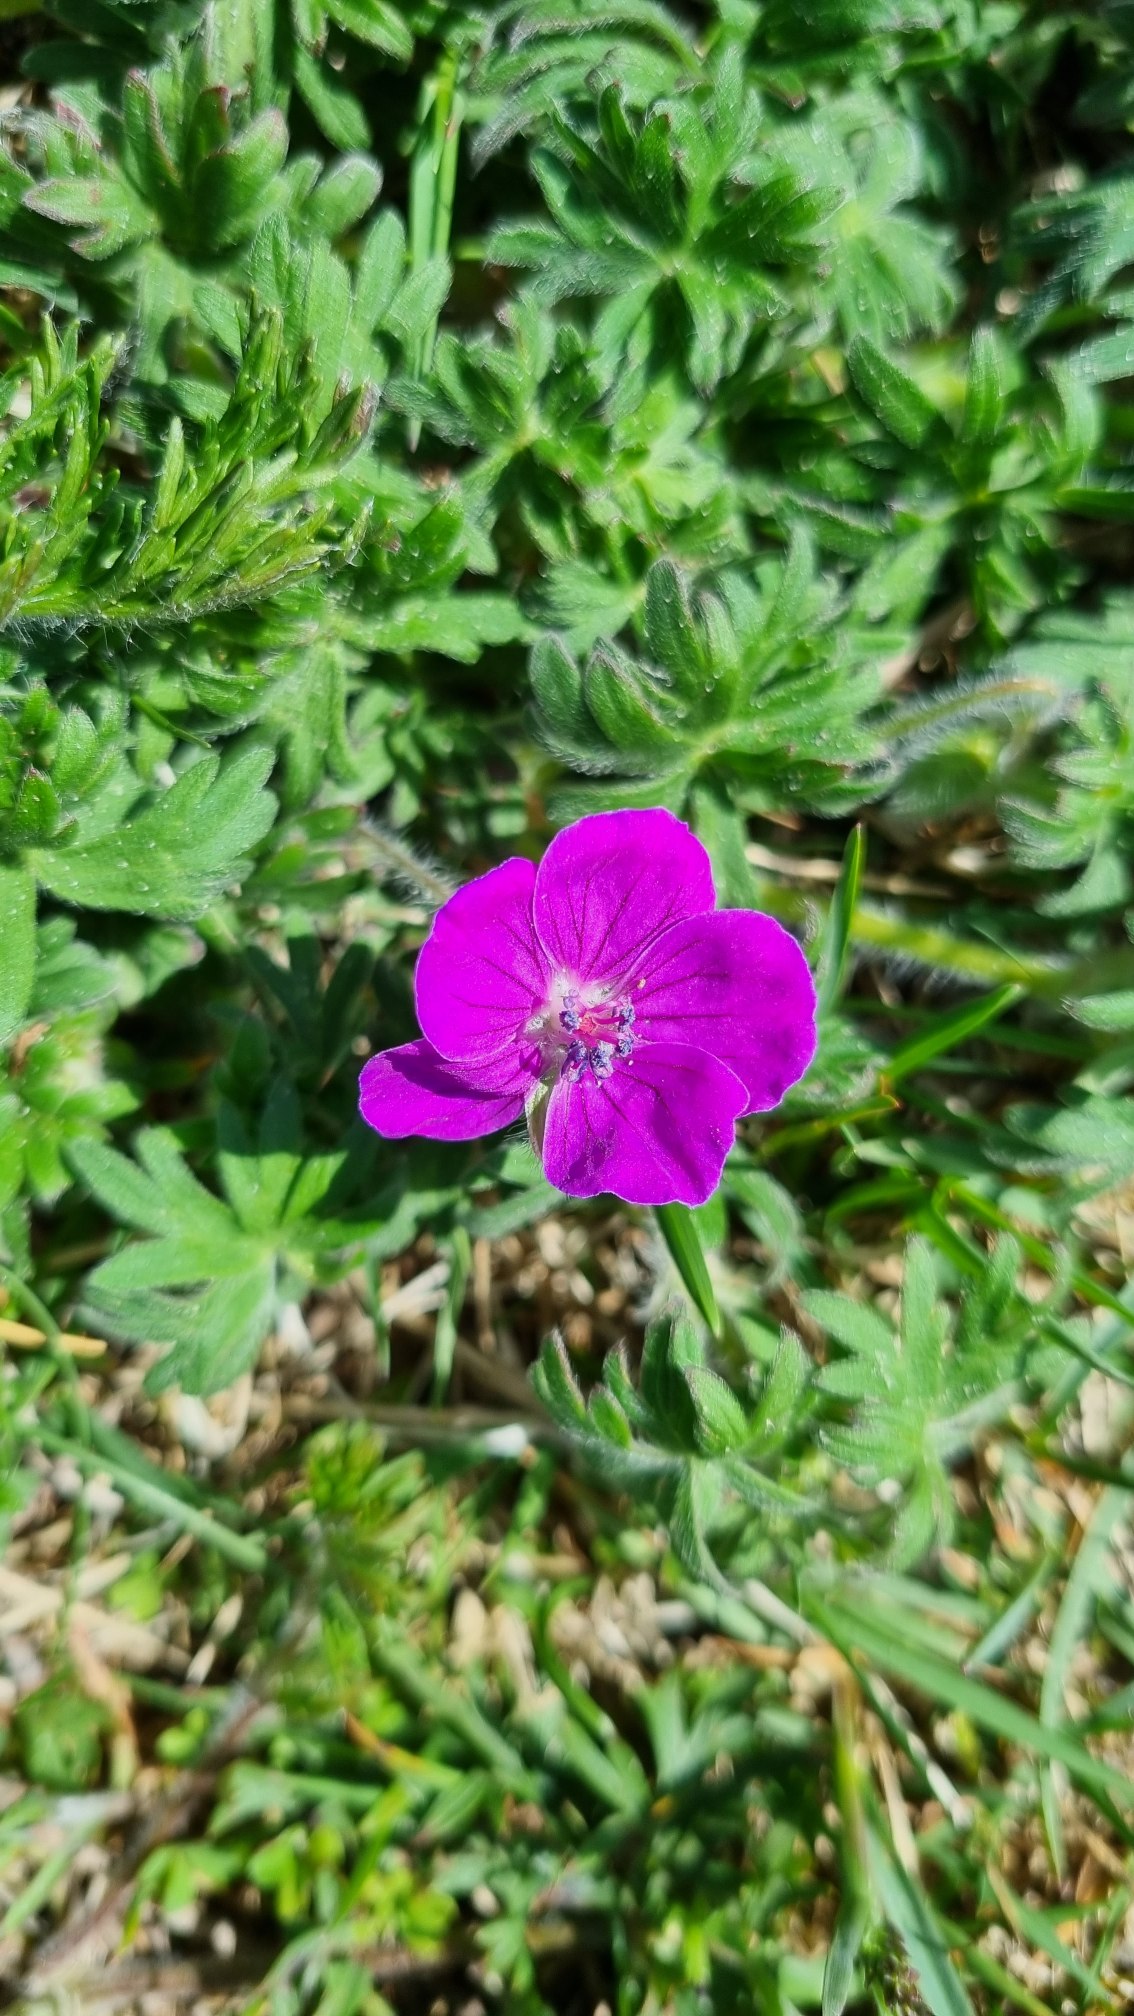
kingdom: Plantae
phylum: Tracheophyta
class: Magnoliopsida
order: Geraniales
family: Geraniaceae
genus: Geranium
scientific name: Geranium sanguineum
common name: Blodrød storkenæb
